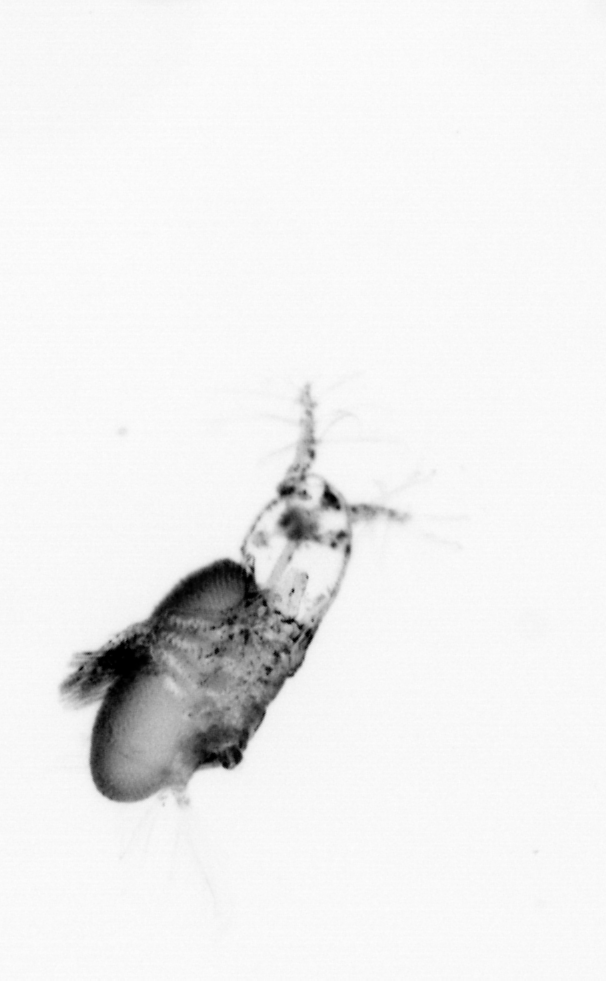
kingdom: Animalia
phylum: Arthropoda
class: Copepoda
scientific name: Copepoda
